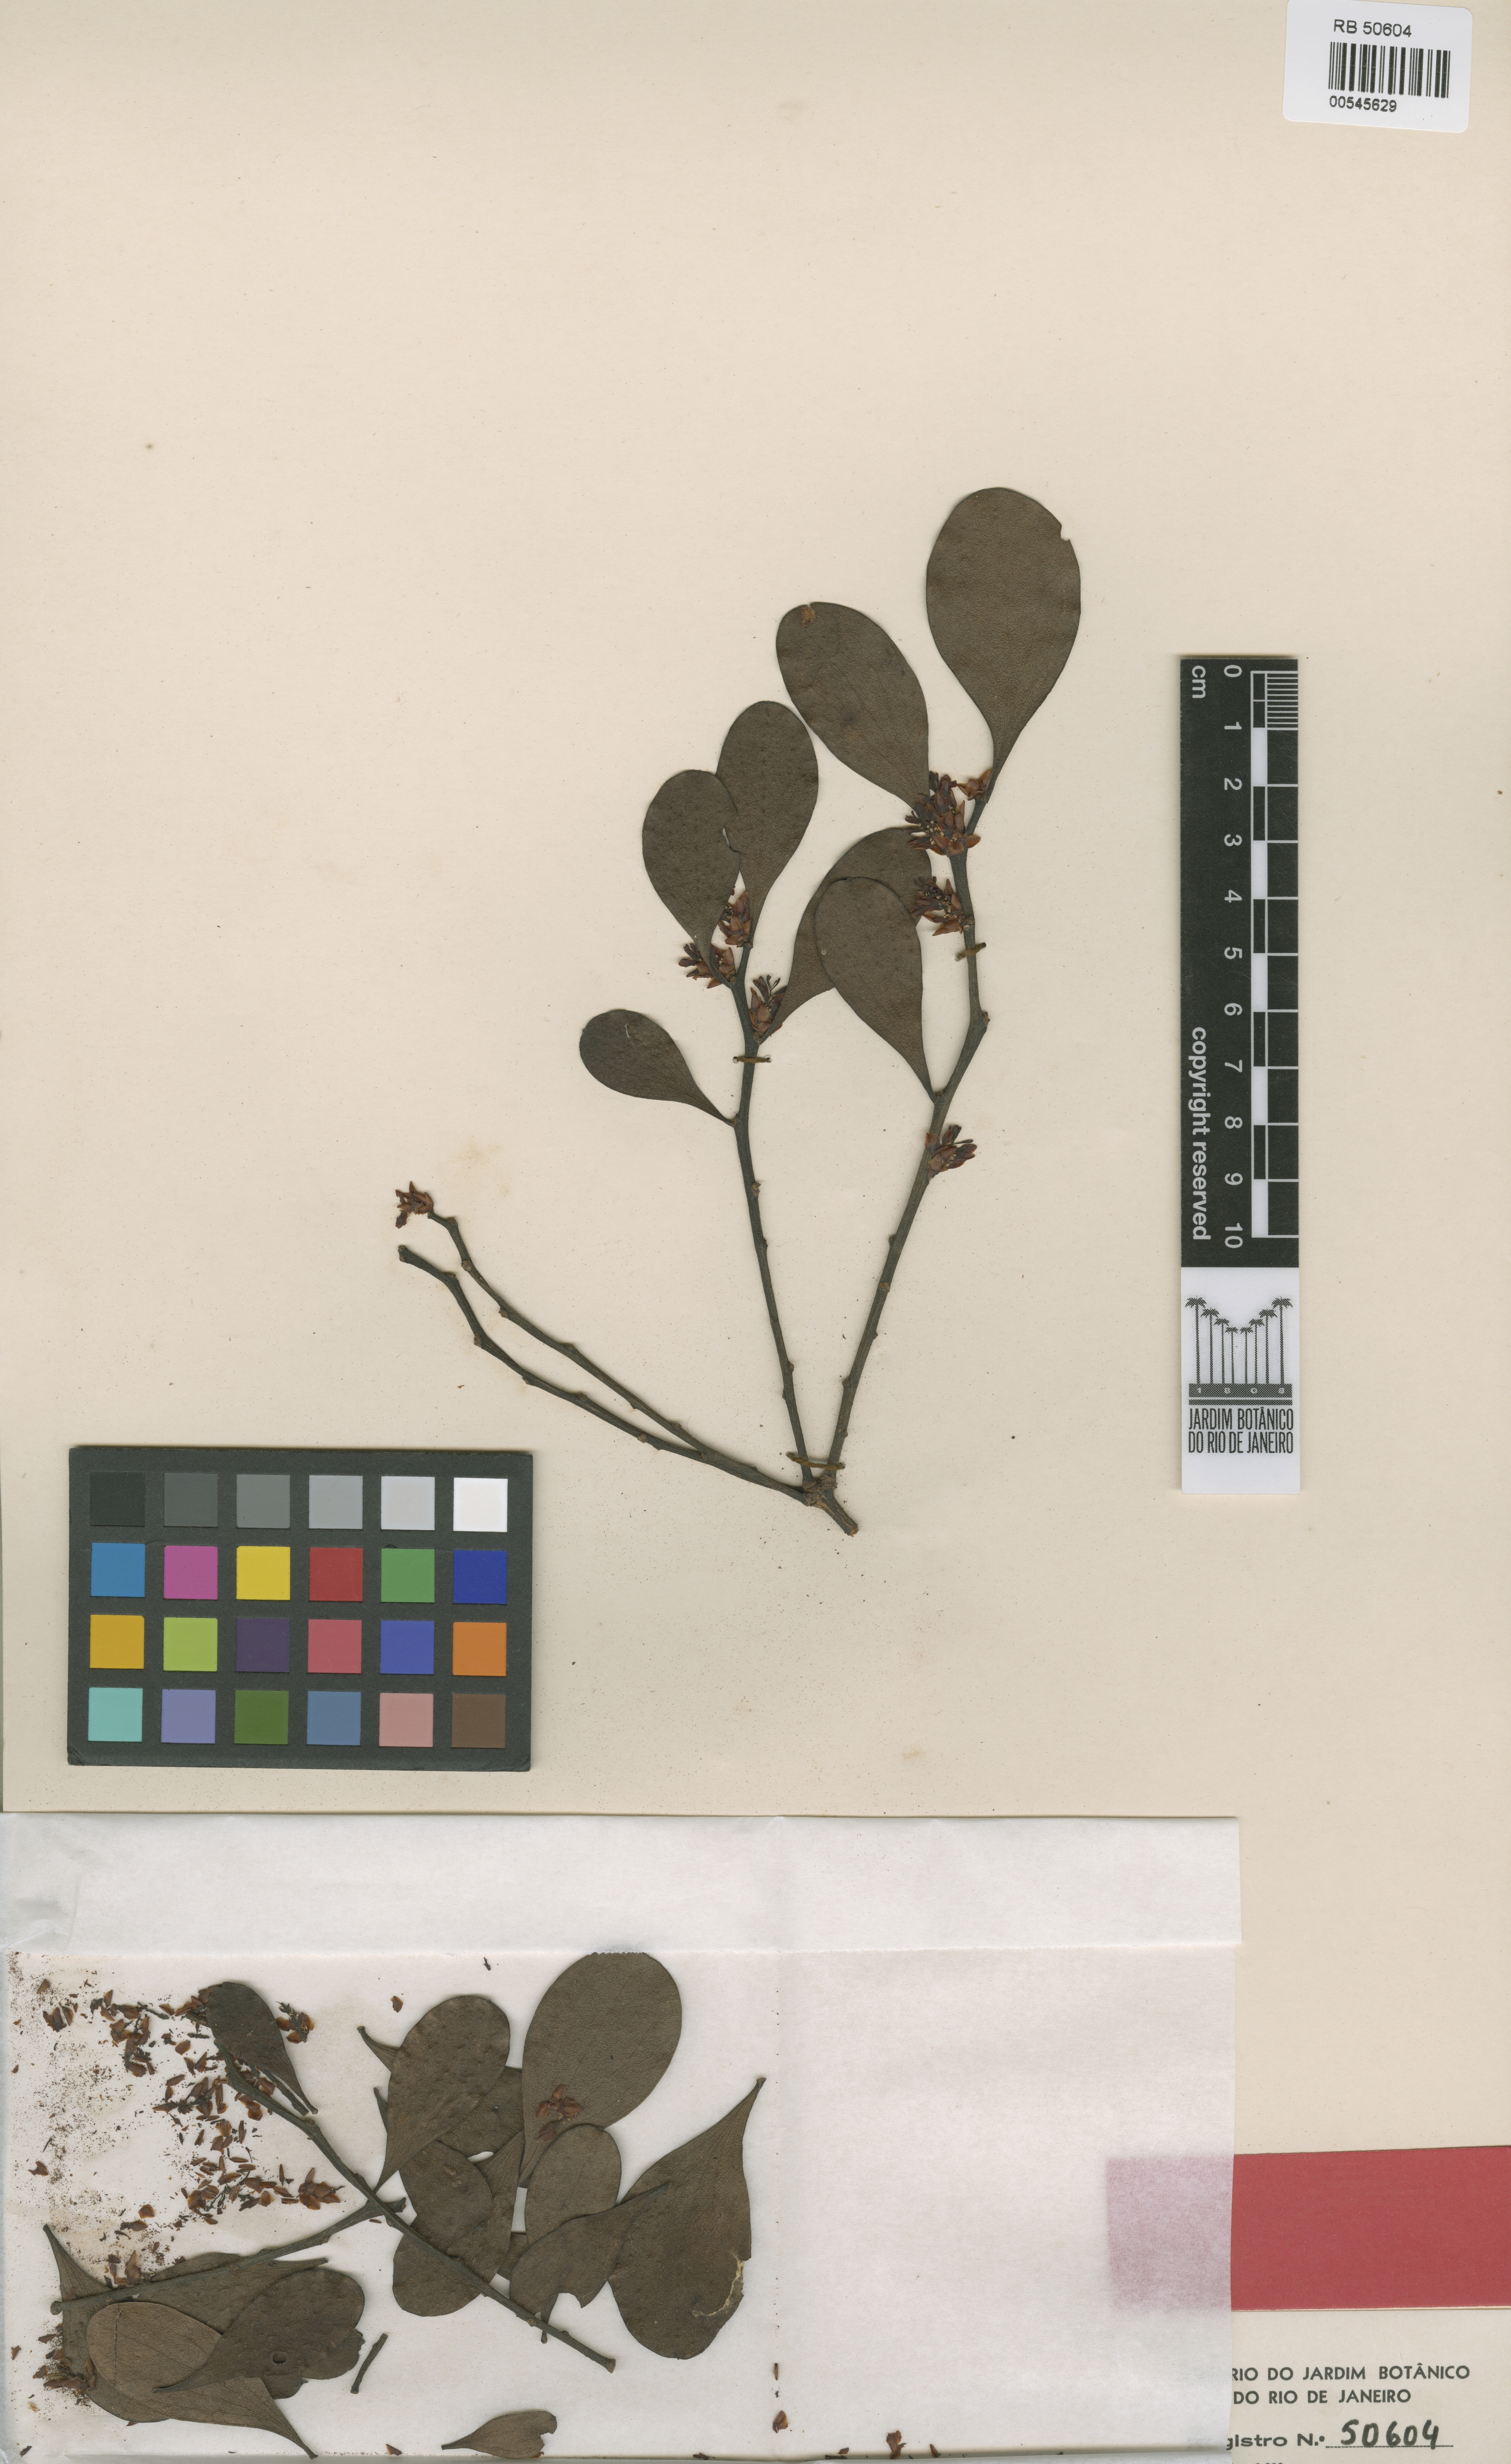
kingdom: Plantae
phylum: Tracheophyta
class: Magnoliopsida
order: Santalales
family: Santalaceae
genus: Antidaphne
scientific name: Antidaphne amazonensis
